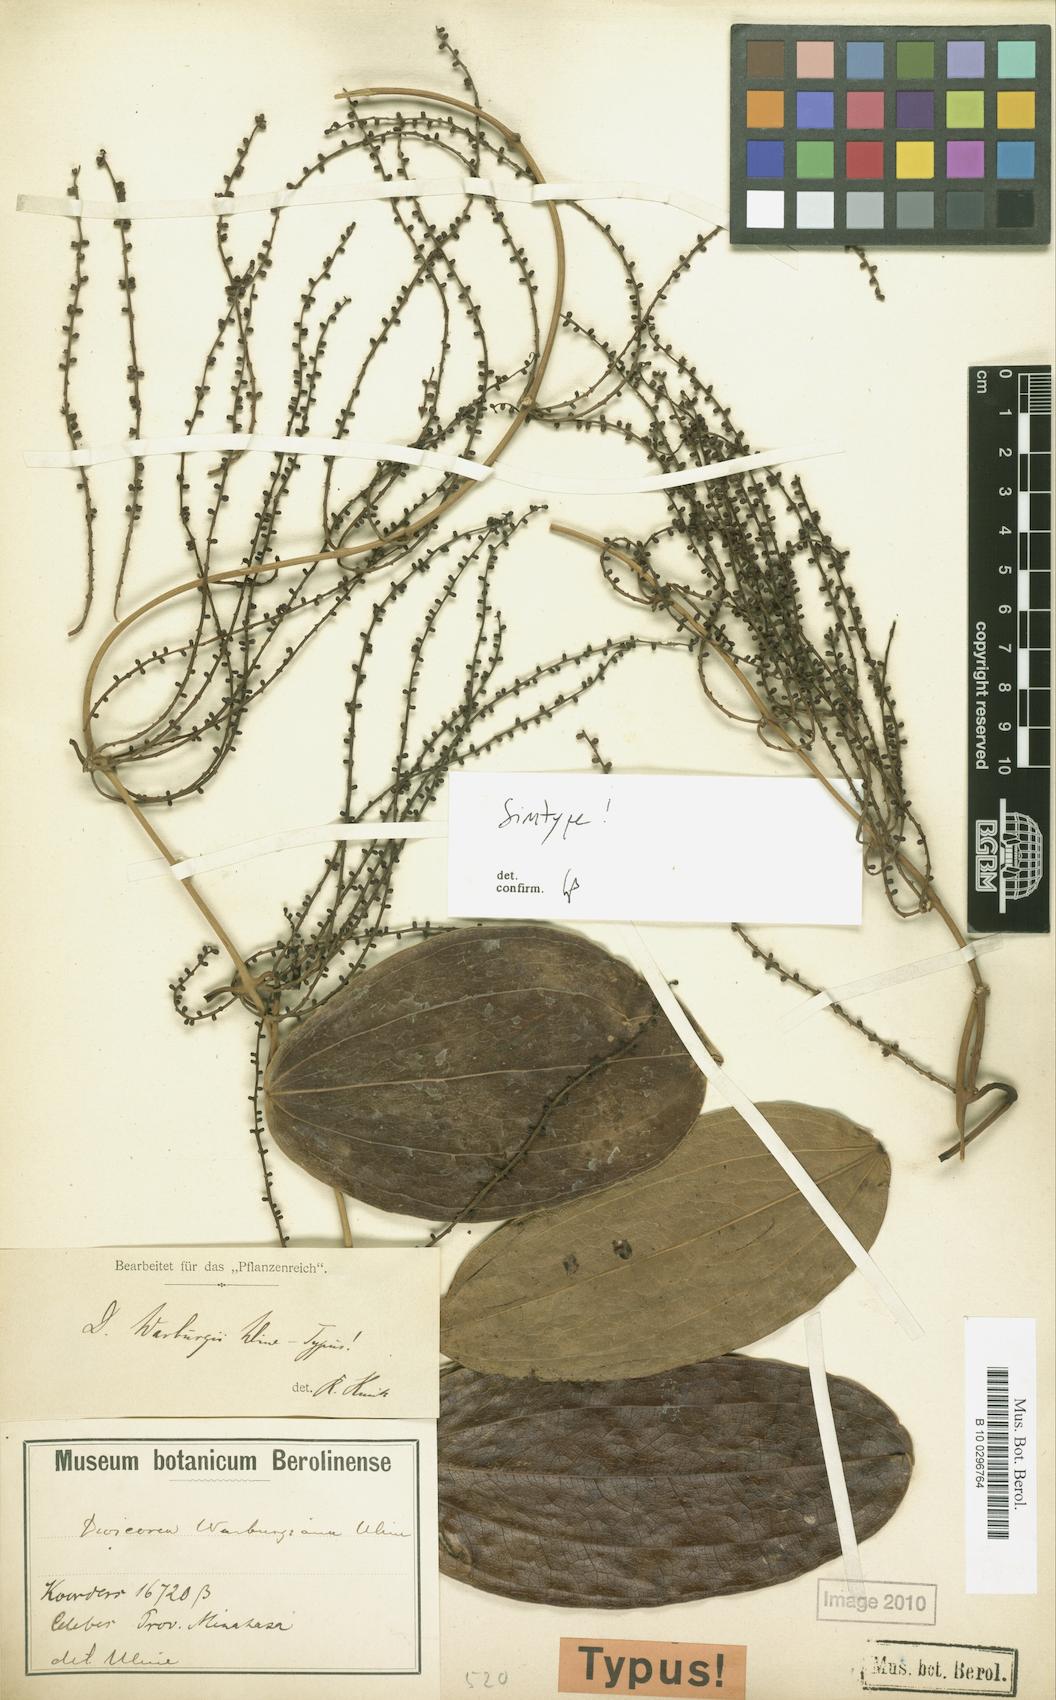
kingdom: Plantae
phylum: Tracheophyta
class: Liliopsida
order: Dioscoreales
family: Dioscoreaceae
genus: Dioscorea
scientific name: Dioscorea warburgiana
